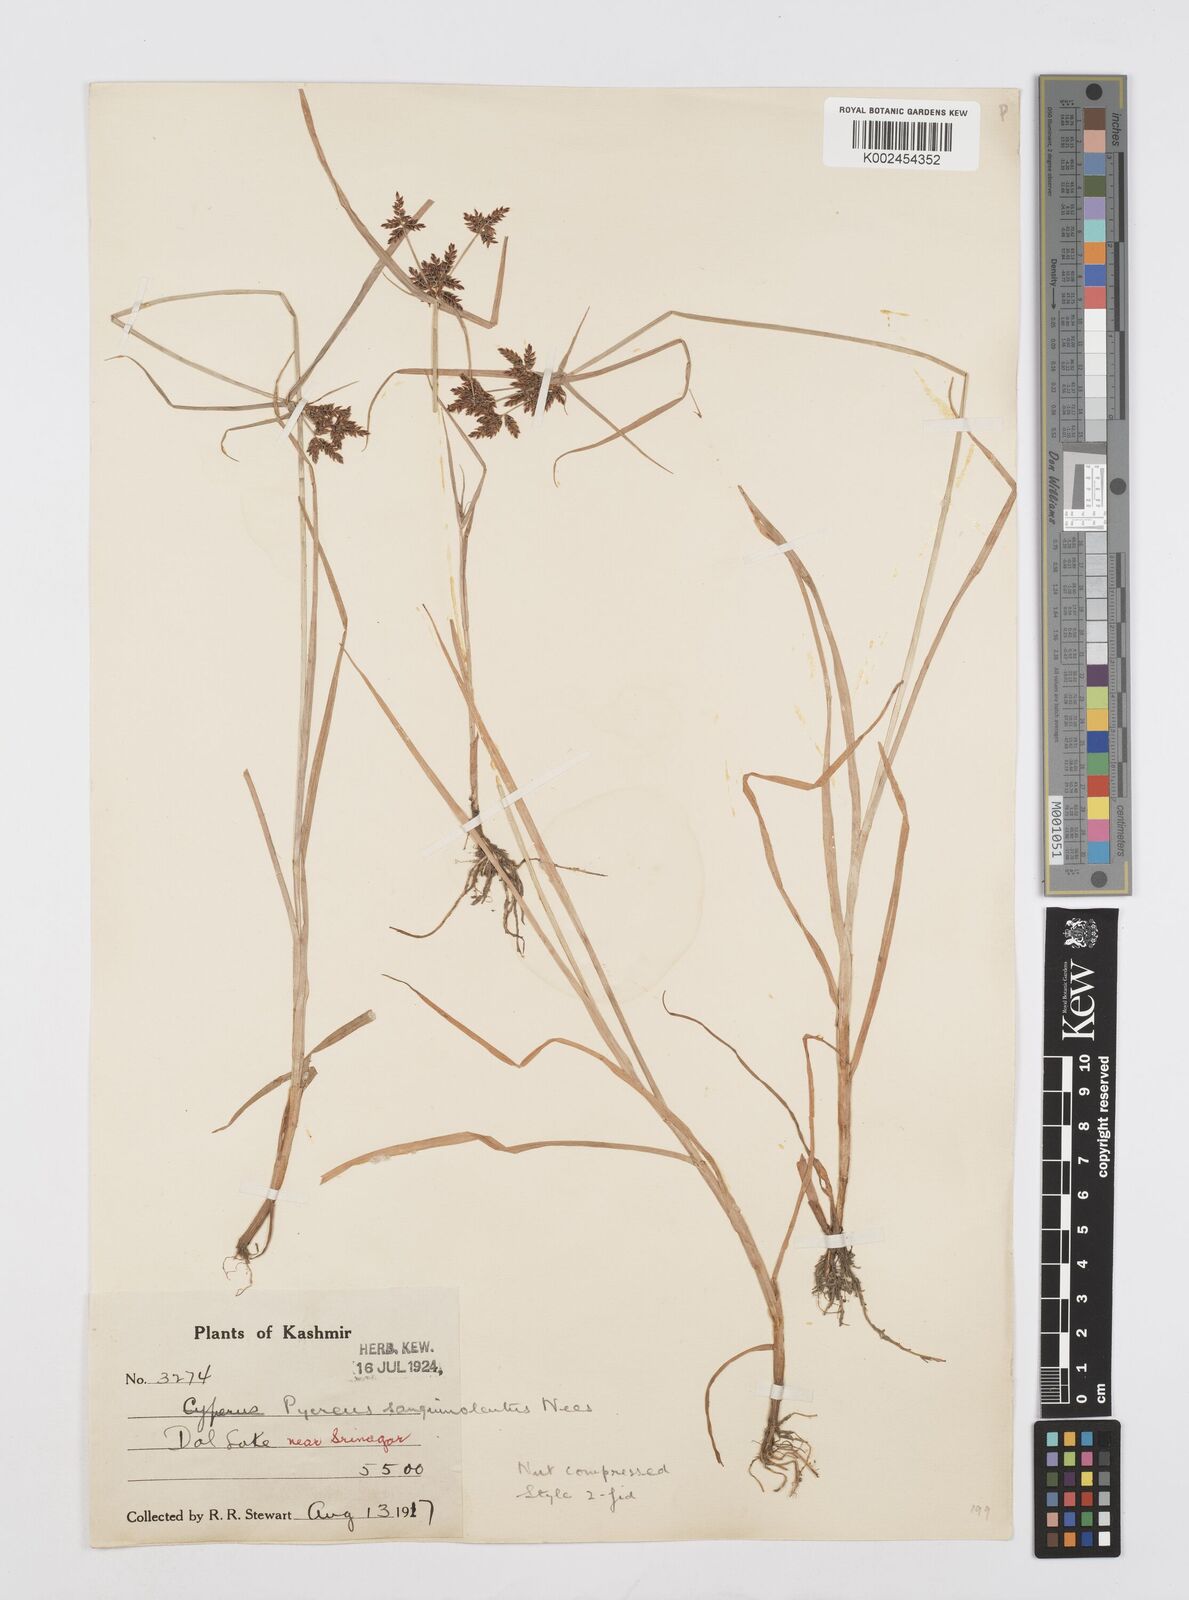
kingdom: Plantae
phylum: Tracheophyta
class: Liliopsida
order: Poales
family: Cyperaceae
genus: Cyperus
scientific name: Cyperus sanguinolentus
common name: Purpleglume flatsedge
